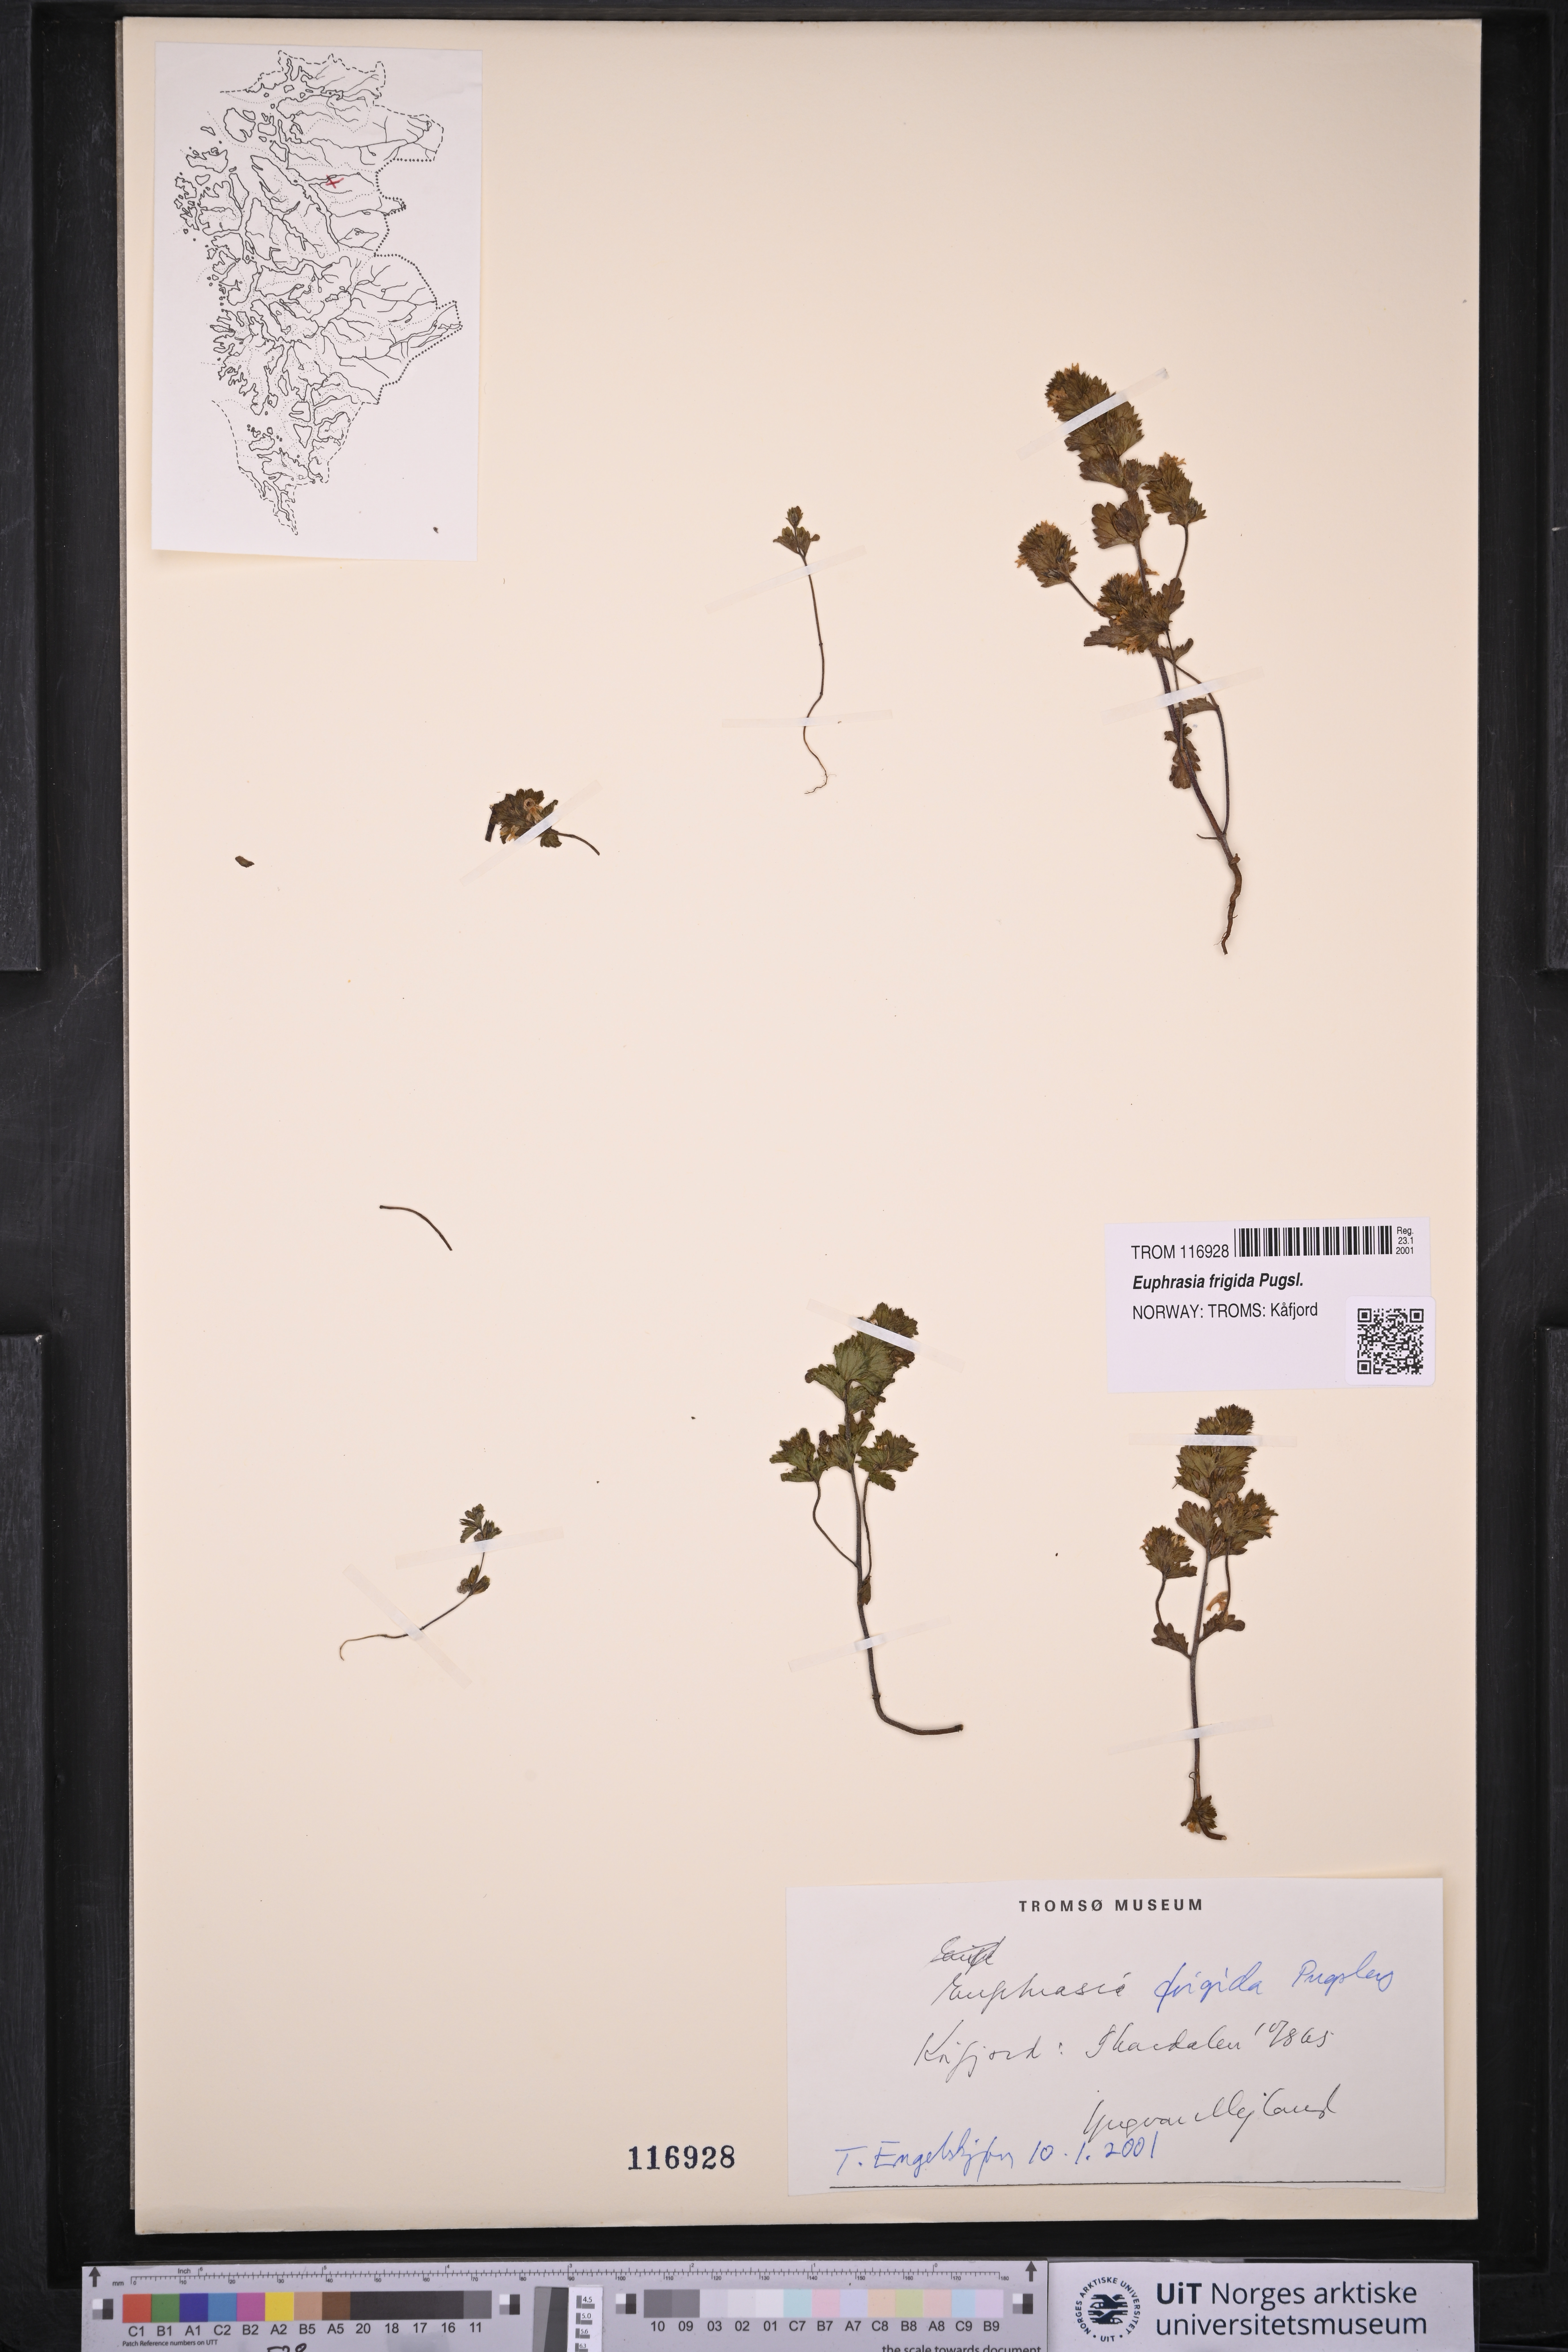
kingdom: Plantae
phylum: Tracheophyta
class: Magnoliopsida
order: Lamiales
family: Orobanchaceae
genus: Euphrasia
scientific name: Euphrasia frigida
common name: An eyebright
